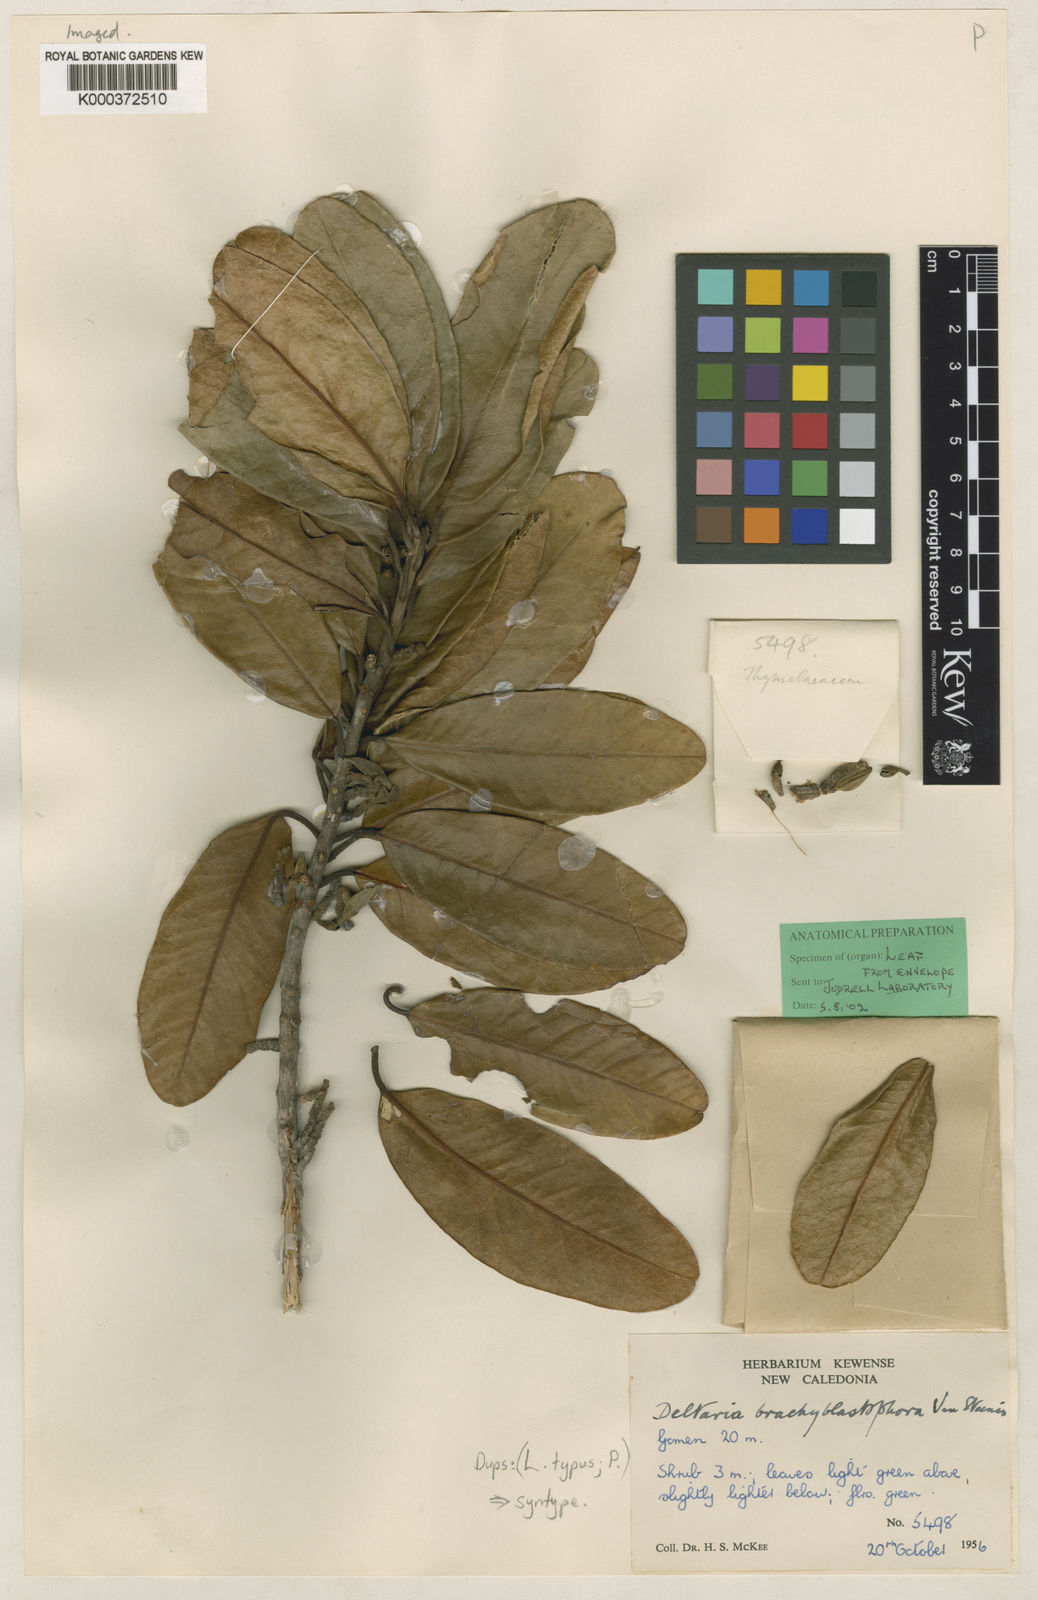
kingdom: Plantae
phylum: Tracheophyta
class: Magnoliopsida
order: Malvales
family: Thymelaeaceae
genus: Deltaria
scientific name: Deltaria brachyblastophora
